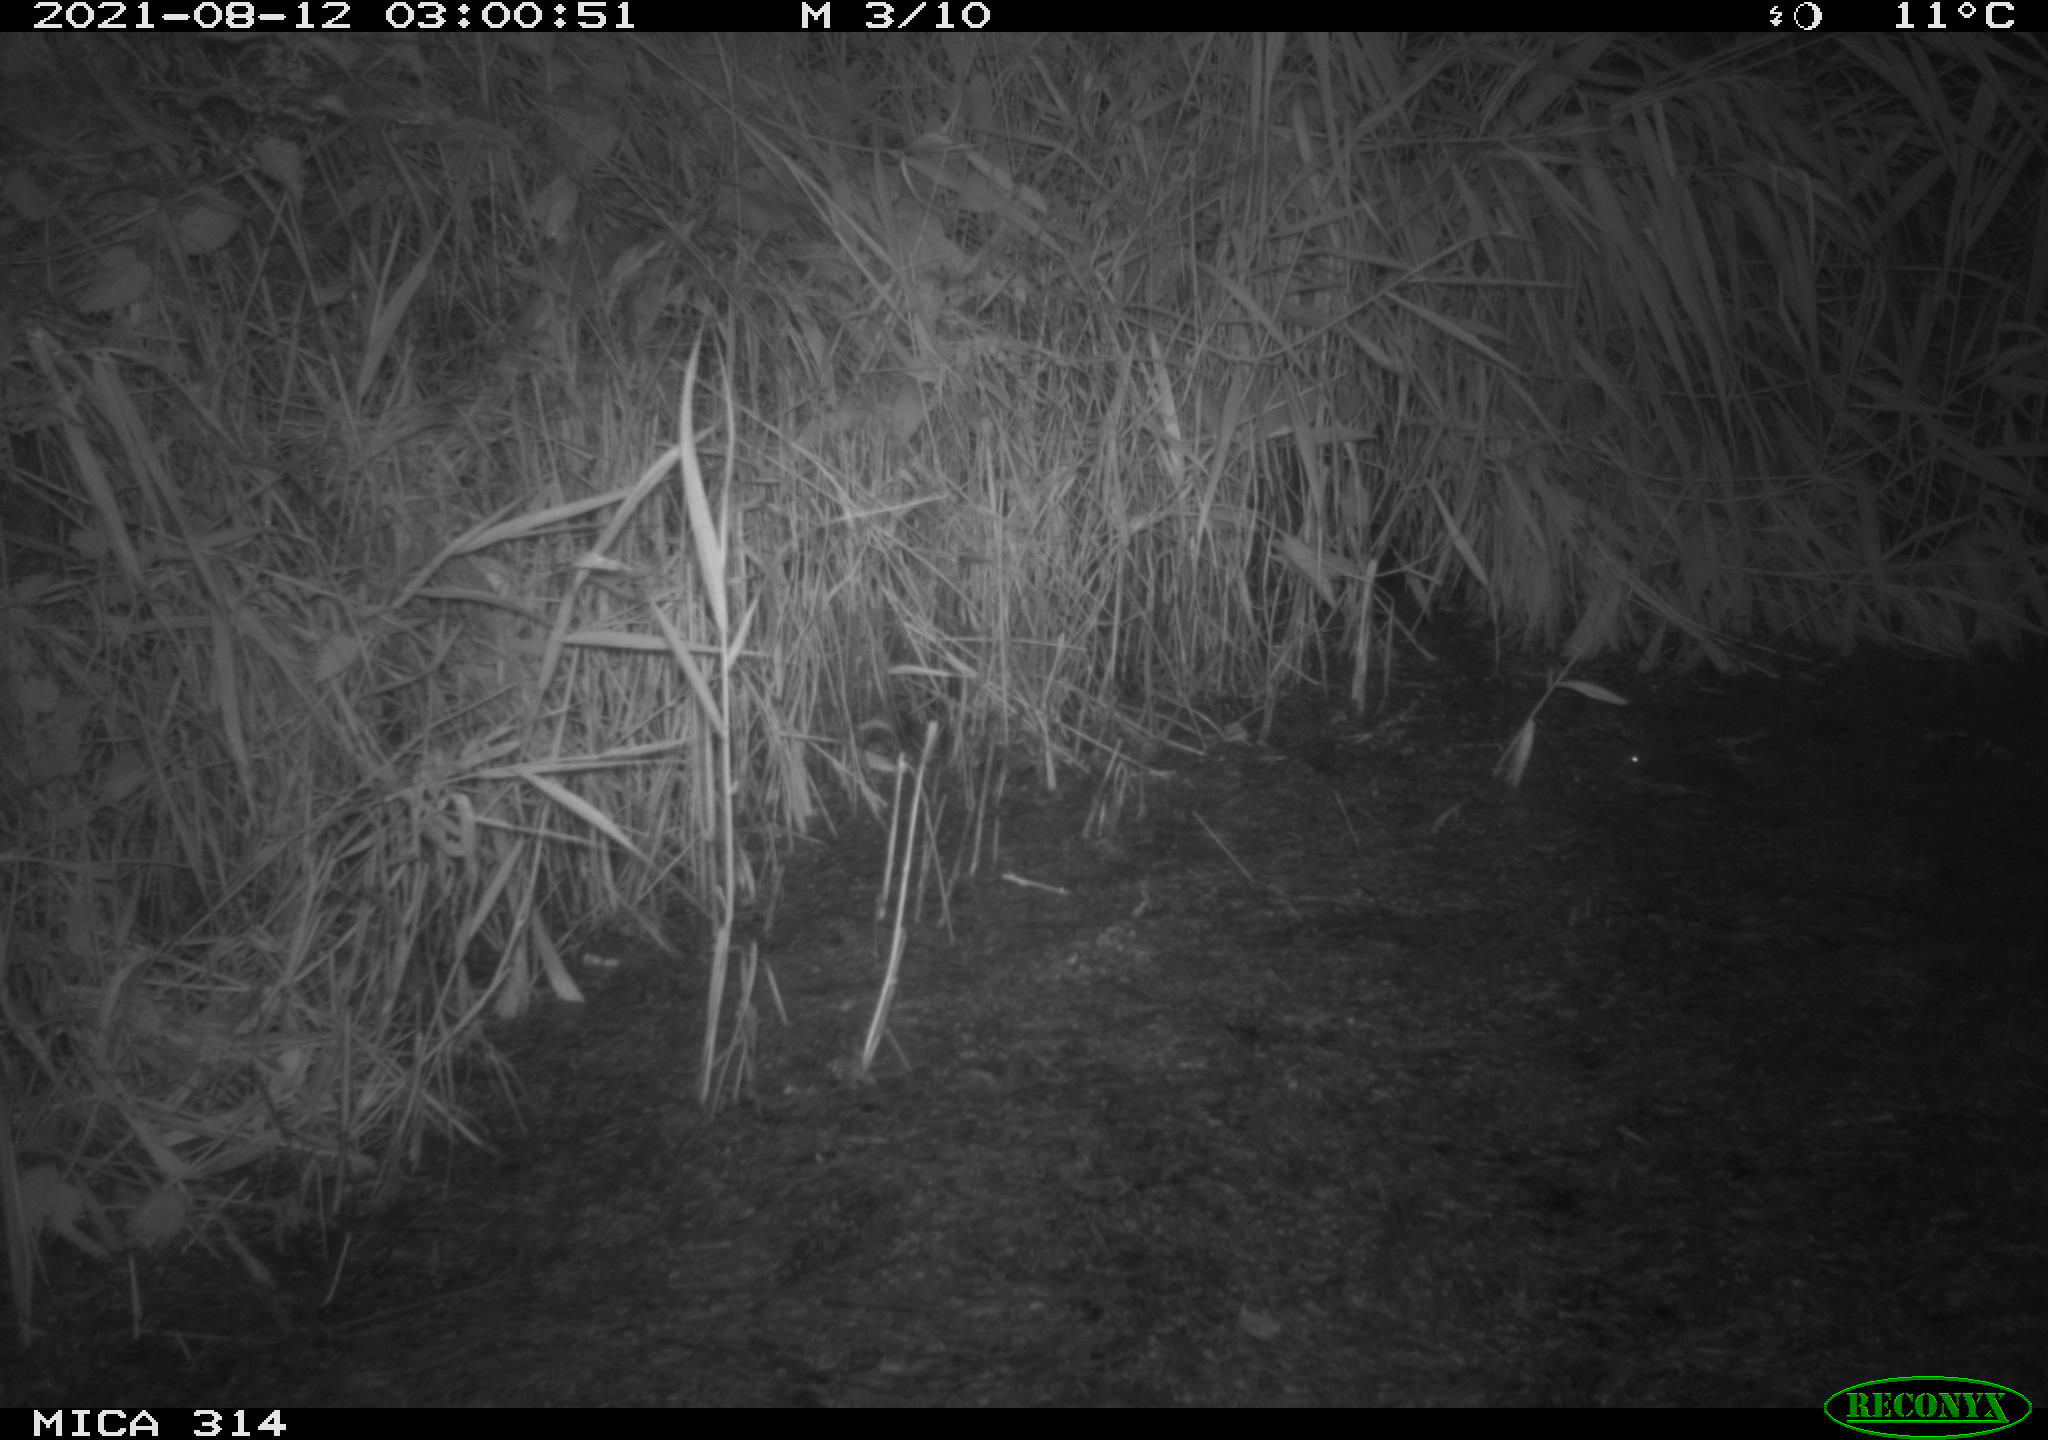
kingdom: Animalia
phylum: Chordata
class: Mammalia
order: Rodentia
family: Muridae
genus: Rattus
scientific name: Rattus norvegicus
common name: Brown rat
